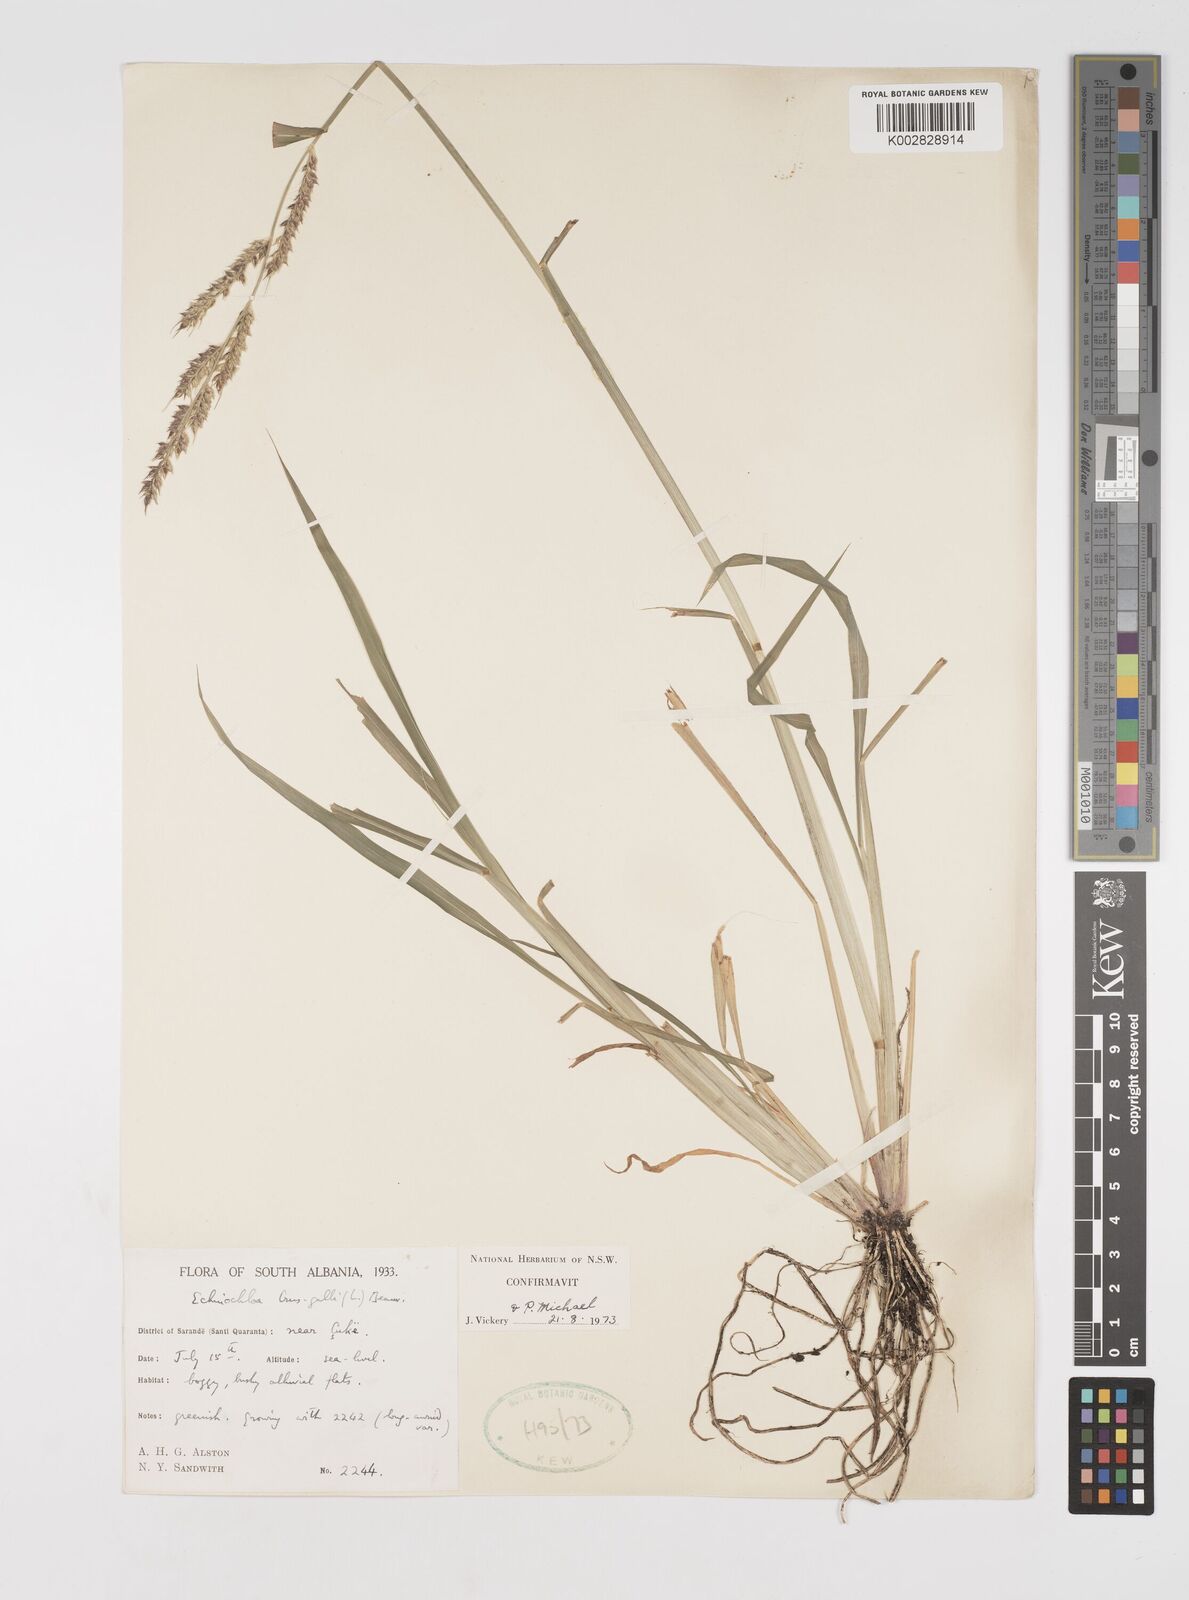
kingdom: Plantae
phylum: Tracheophyta
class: Liliopsida
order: Poales
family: Poaceae
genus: Echinochloa
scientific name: Echinochloa crus-galli
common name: Cockspur
